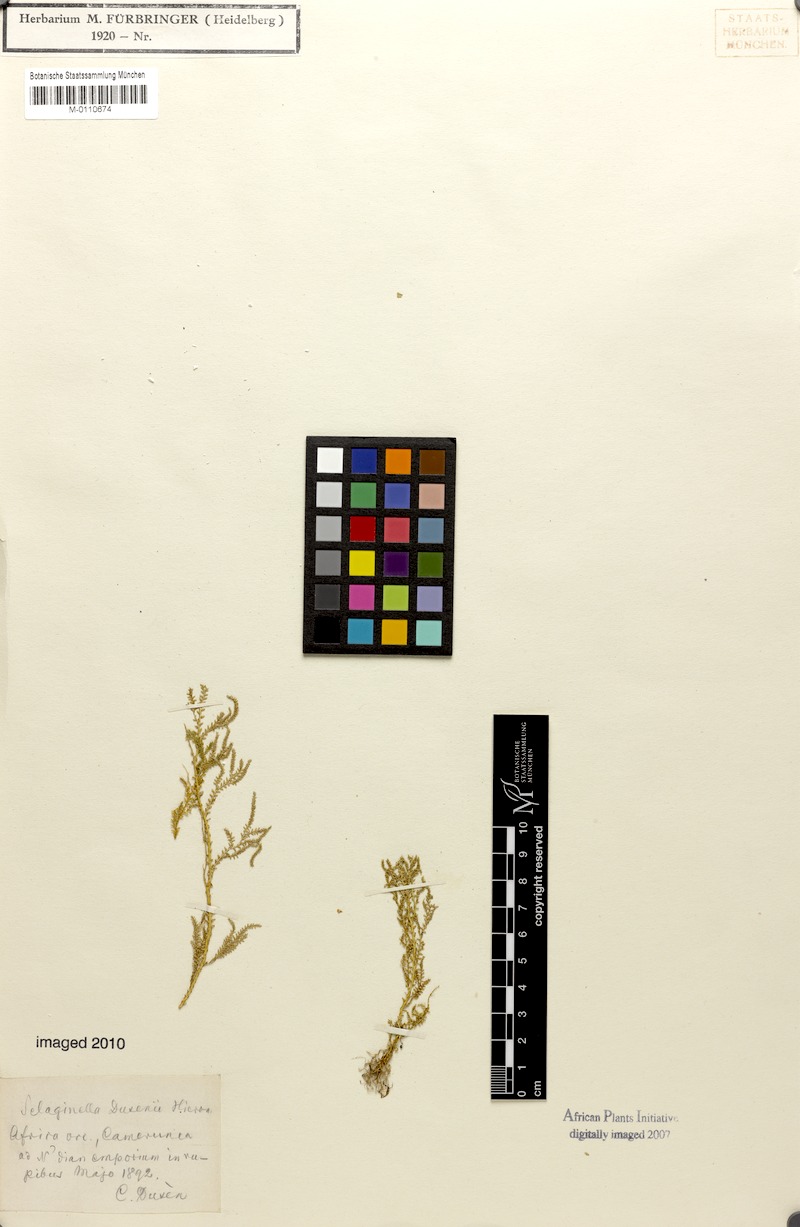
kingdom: Plantae
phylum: Tracheophyta
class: Lycopodiopsida
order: Selaginellales
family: Selaginellaceae
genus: Selaginella
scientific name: Selaginella
